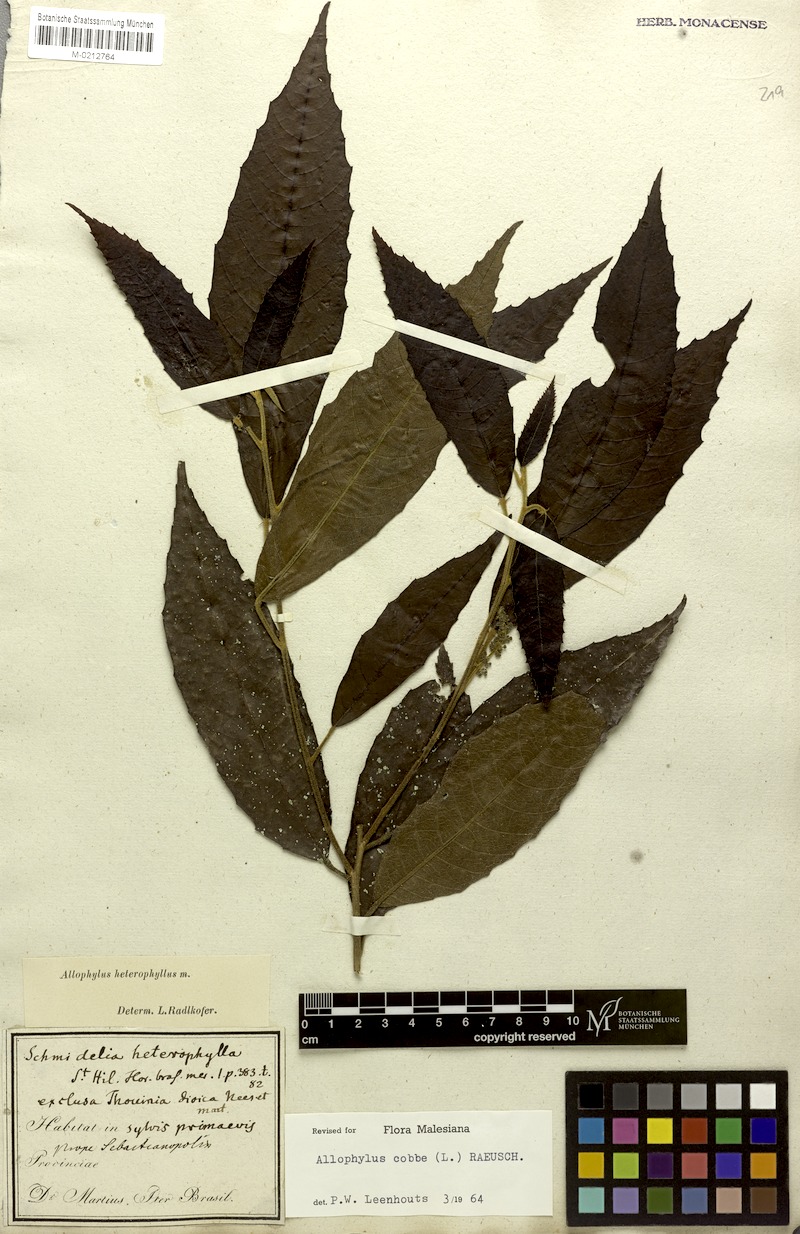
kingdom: Plantae
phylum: Tracheophyta
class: Magnoliopsida
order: Sapindales
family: Sapindaceae
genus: Allophylus
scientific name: Allophylus heterophyllus
